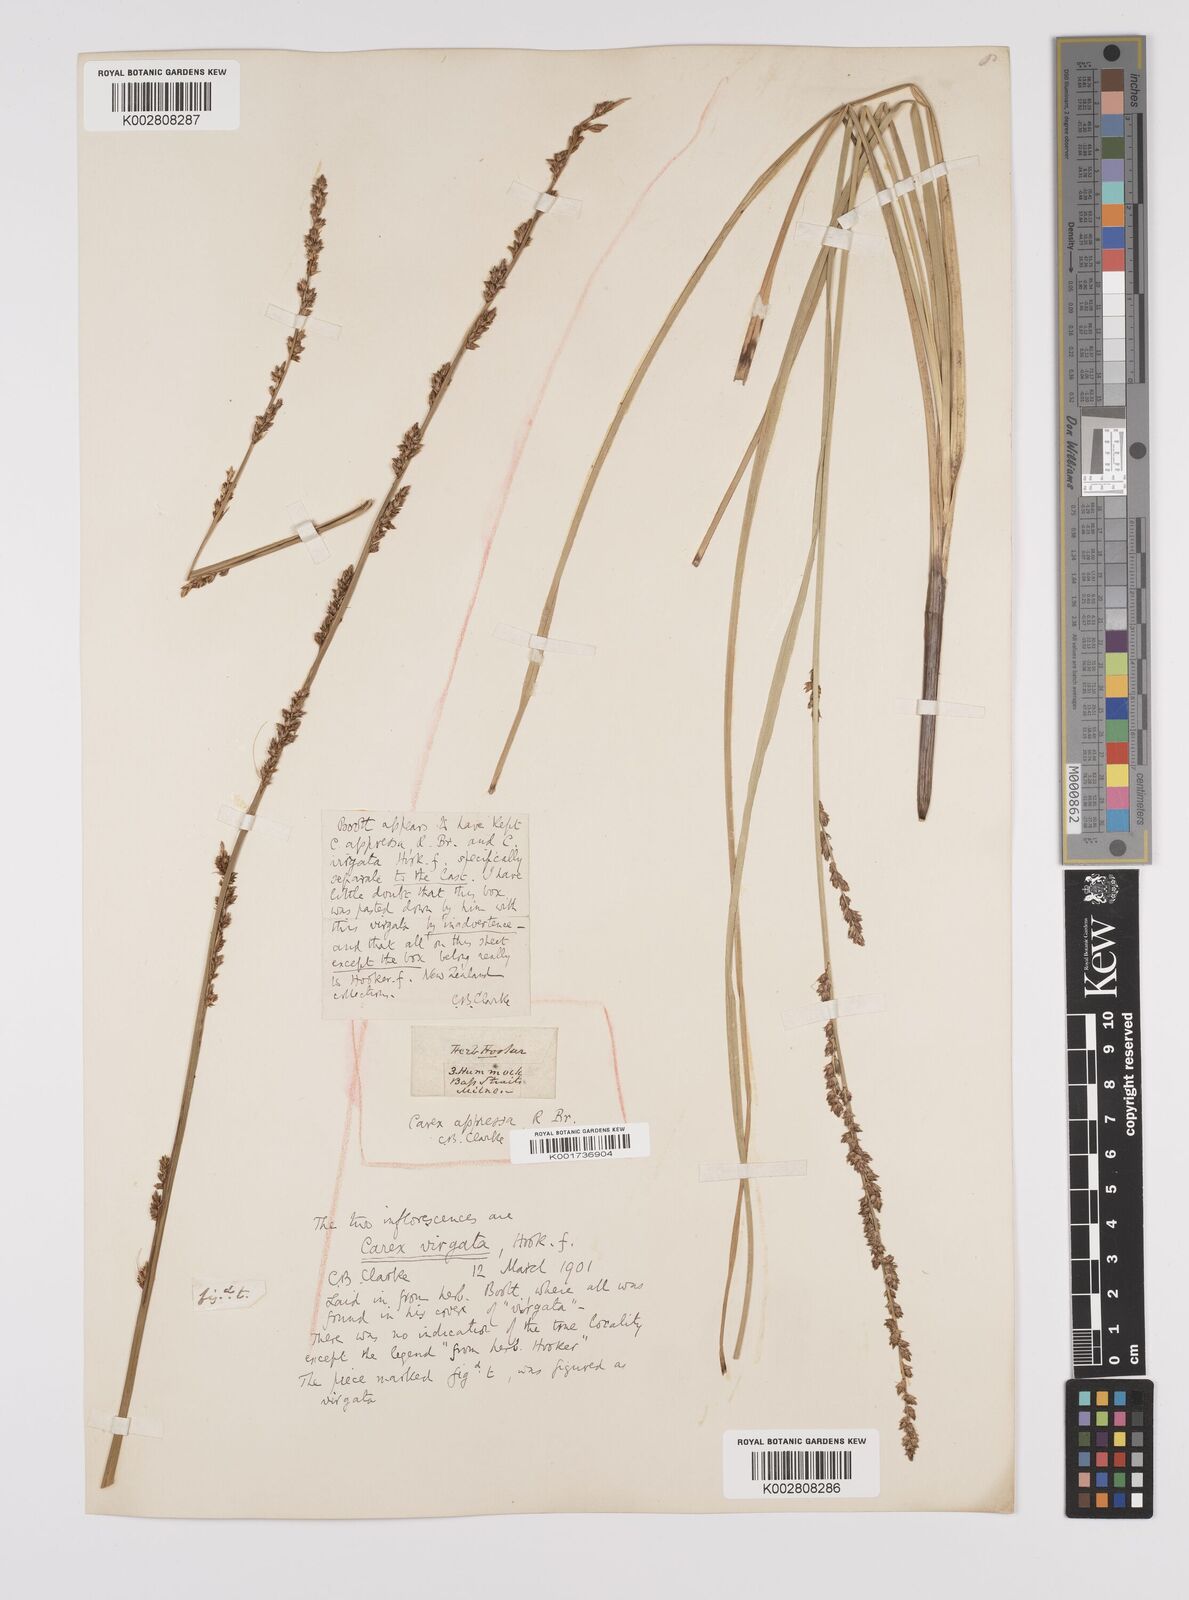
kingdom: Plantae
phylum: Tracheophyta
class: Liliopsida
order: Poales
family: Cyperaceae
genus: Carex
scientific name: Carex appressa
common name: Tussock sedge
